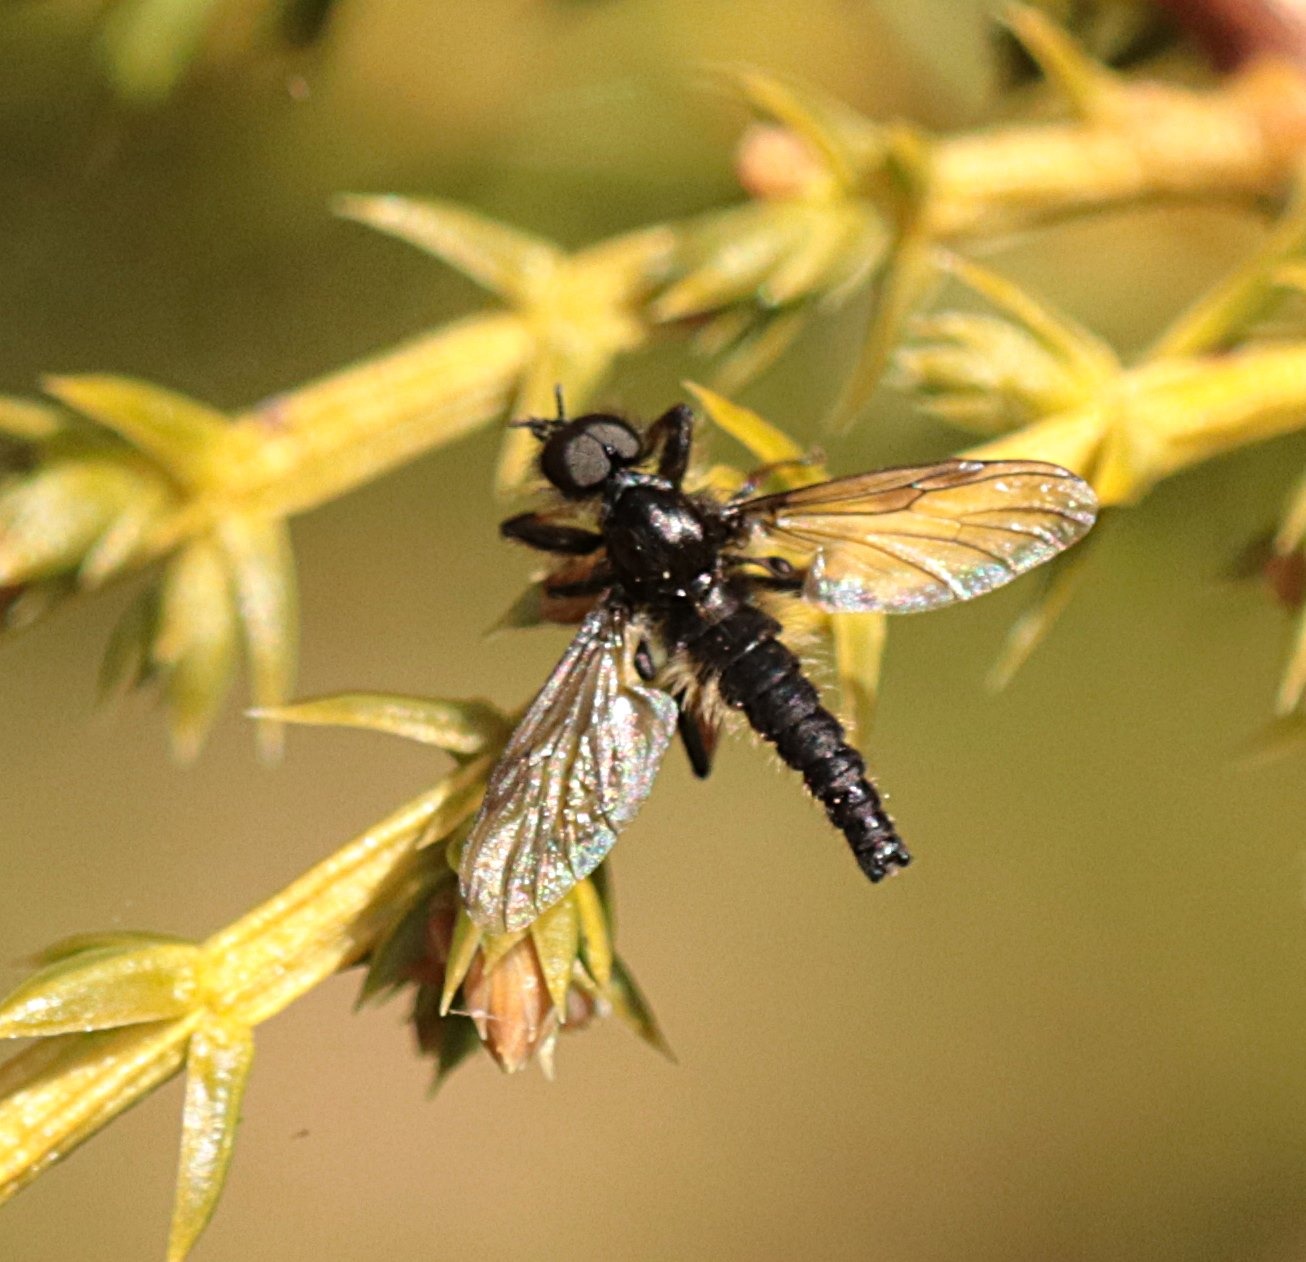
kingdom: Animalia
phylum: Arthropoda
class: Insecta
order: Diptera
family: Bibionidae
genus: Bibio
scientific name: Bibio lanigerus
